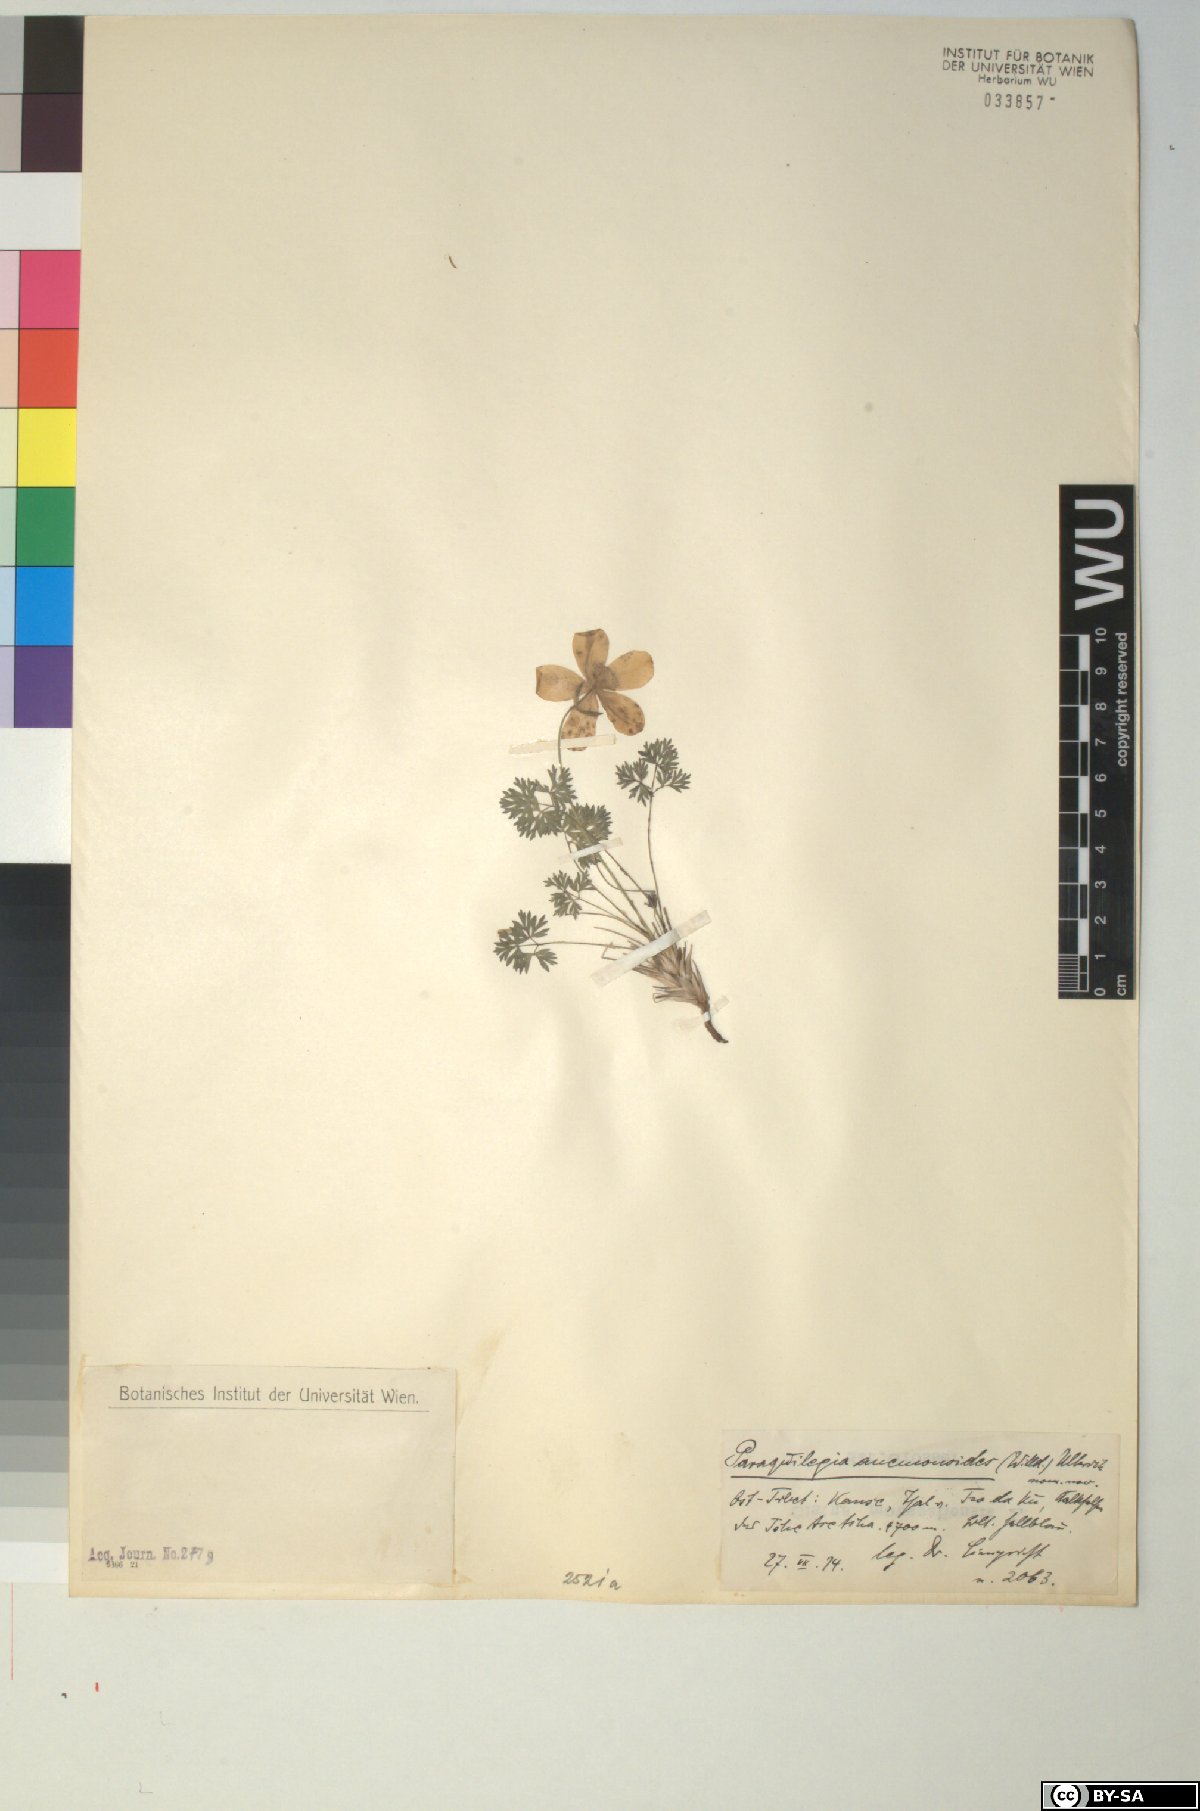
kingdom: Plantae
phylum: Tracheophyta
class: Magnoliopsida
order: Ranunculales
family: Ranunculaceae
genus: Paraquilegia
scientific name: Paraquilegia anemonoides
